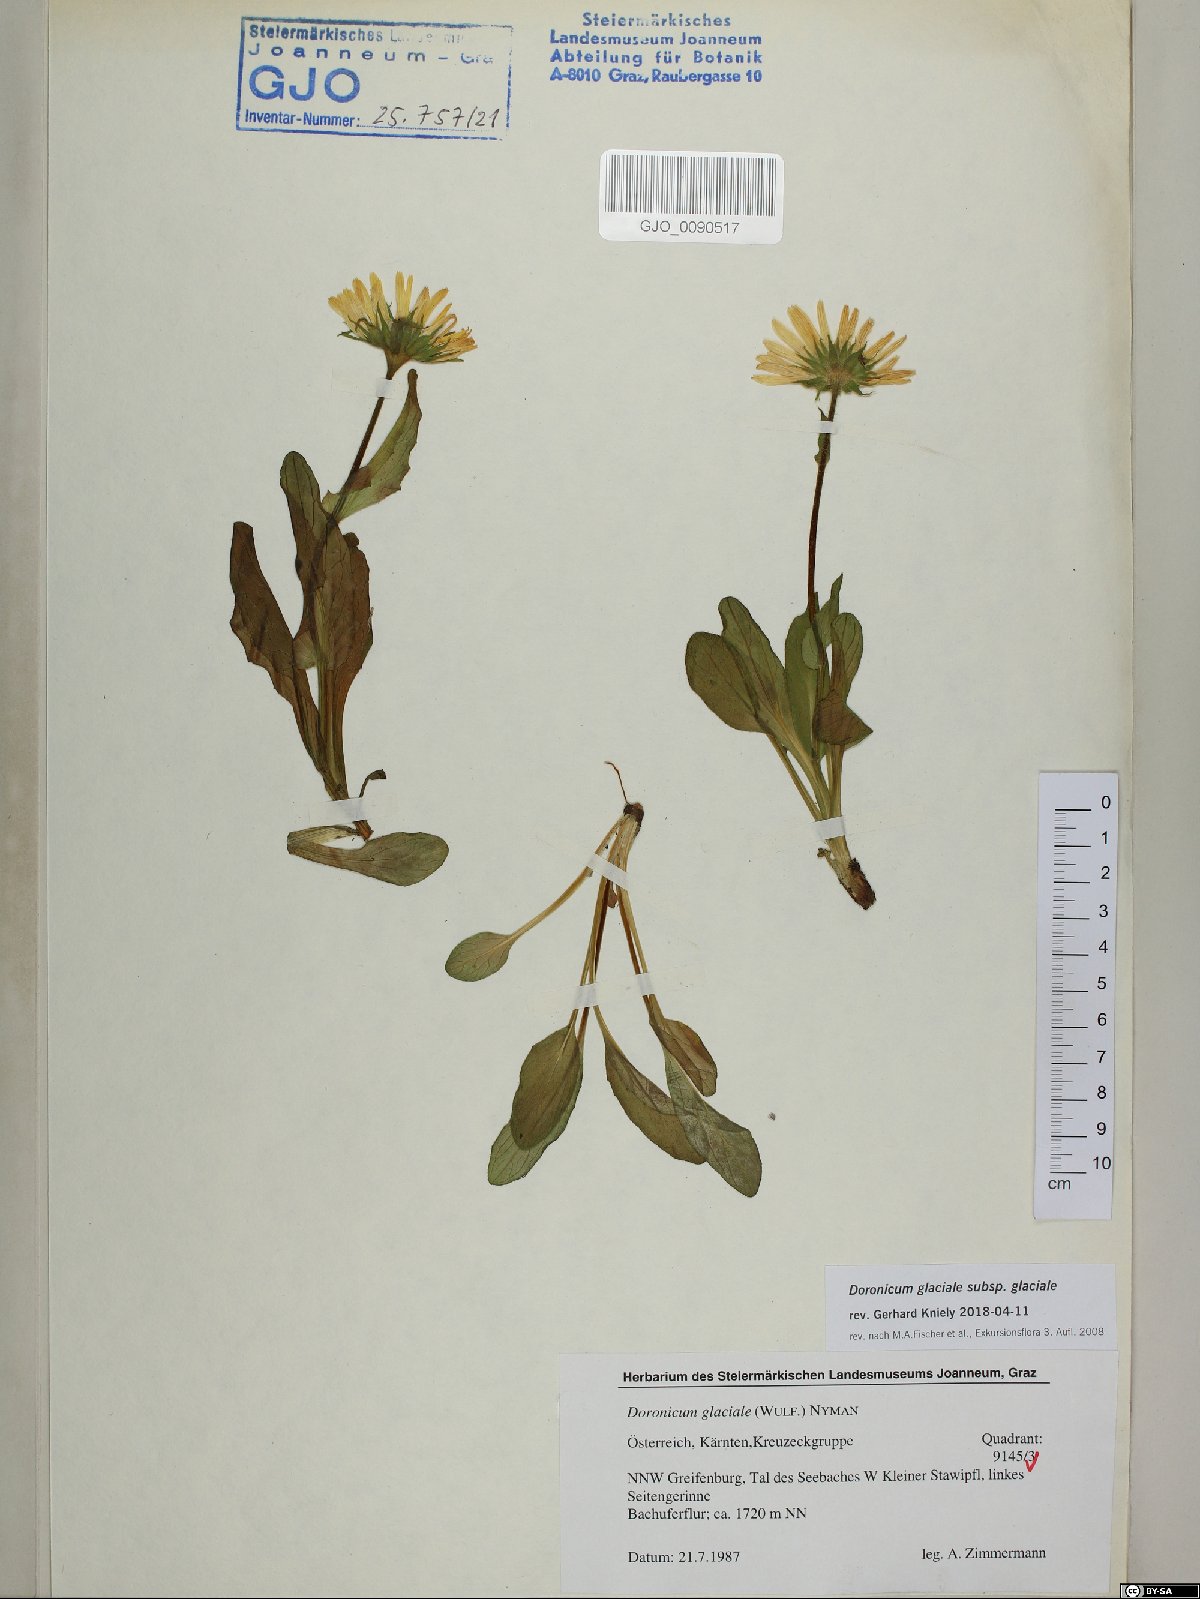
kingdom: Plantae
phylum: Tracheophyta
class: Magnoliopsida
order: Asterales
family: Asteraceae
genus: Doronicum
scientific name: Doronicum glaciale
